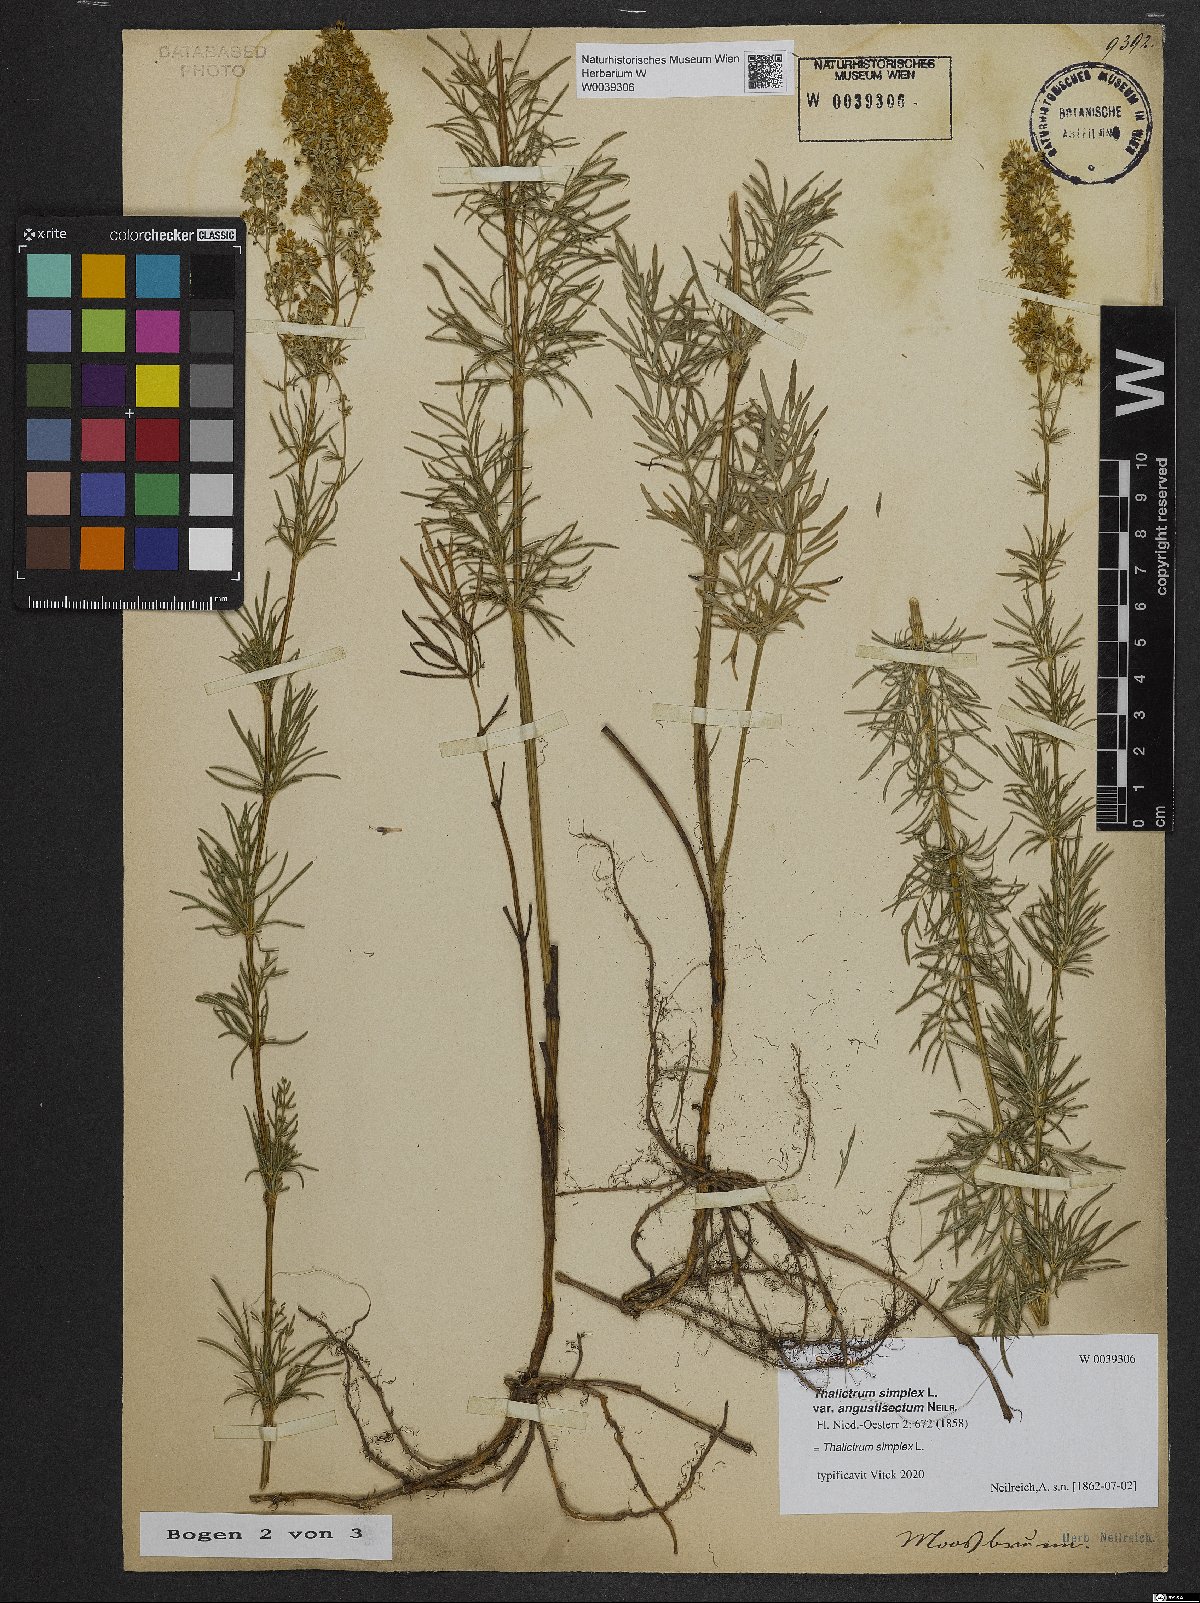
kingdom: Plantae
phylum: Tracheophyta
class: Magnoliopsida
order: Ranunculales
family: Ranunculaceae
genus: Thalictrum
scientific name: Thalictrum simplex
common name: Small meadow-rue
